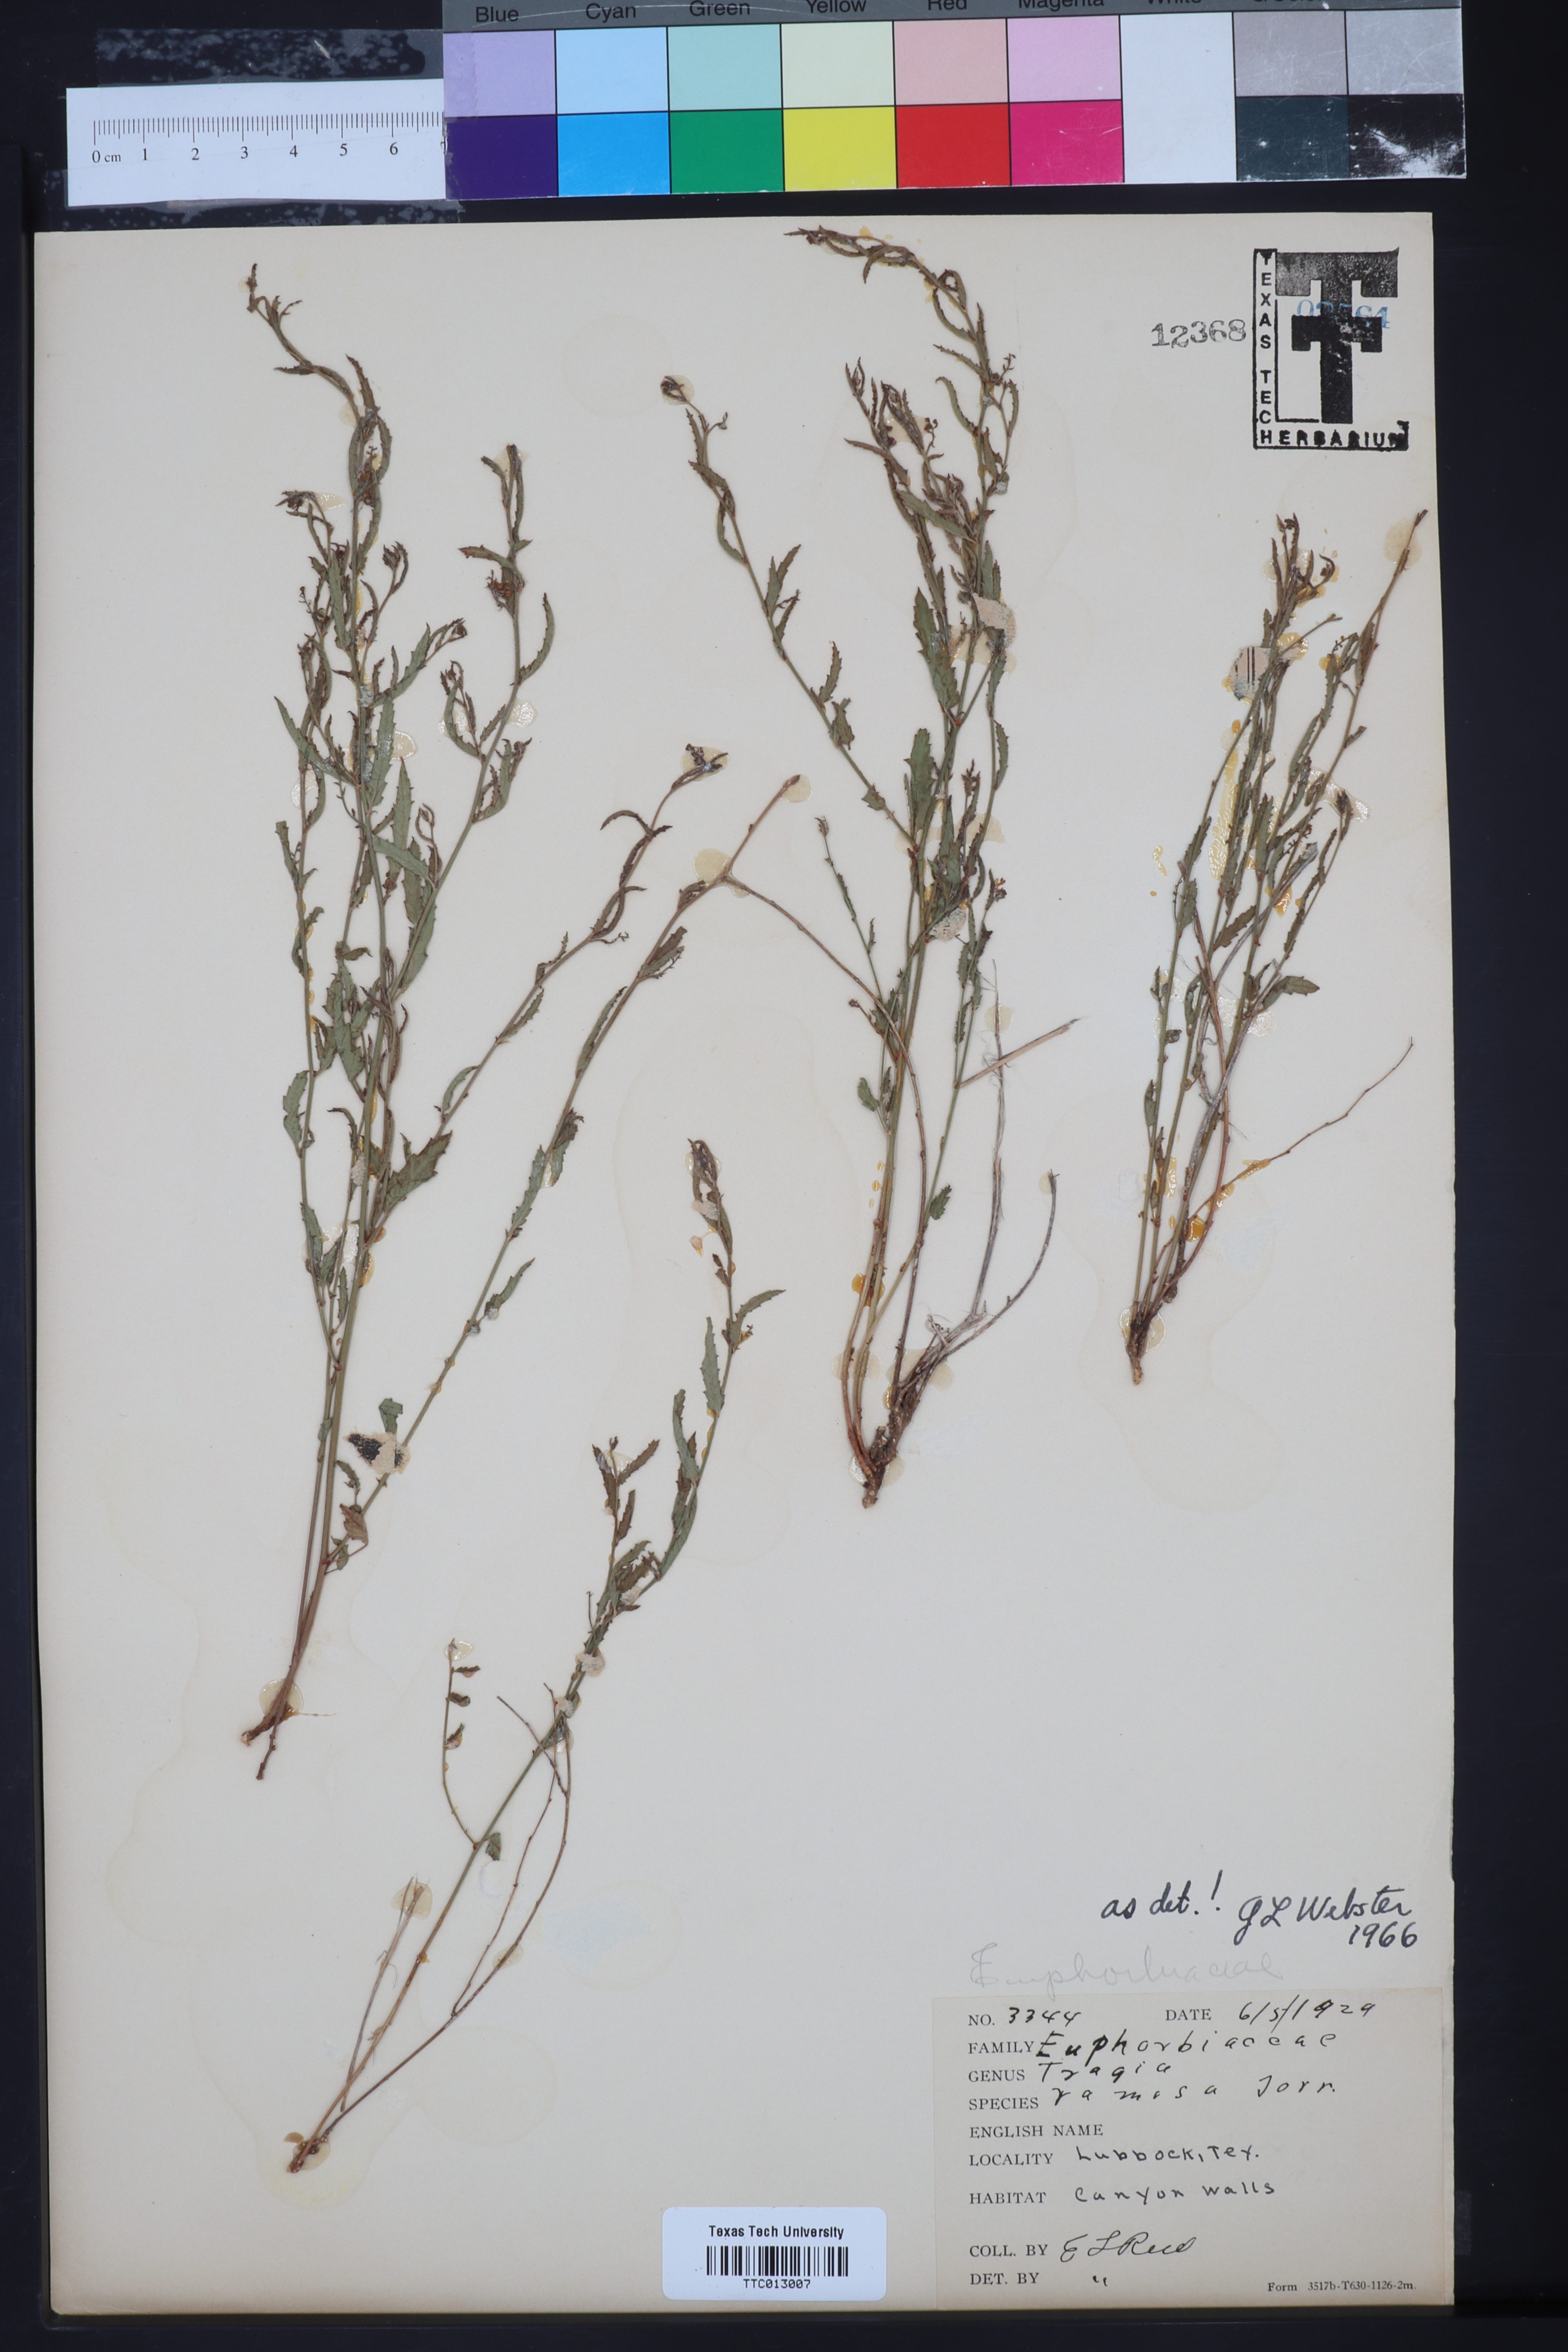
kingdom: Plantae
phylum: Tracheophyta
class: Magnoliopsida
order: Malpighiales
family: Euphorbiaceae
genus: Tragia
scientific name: Tragia ramosa
